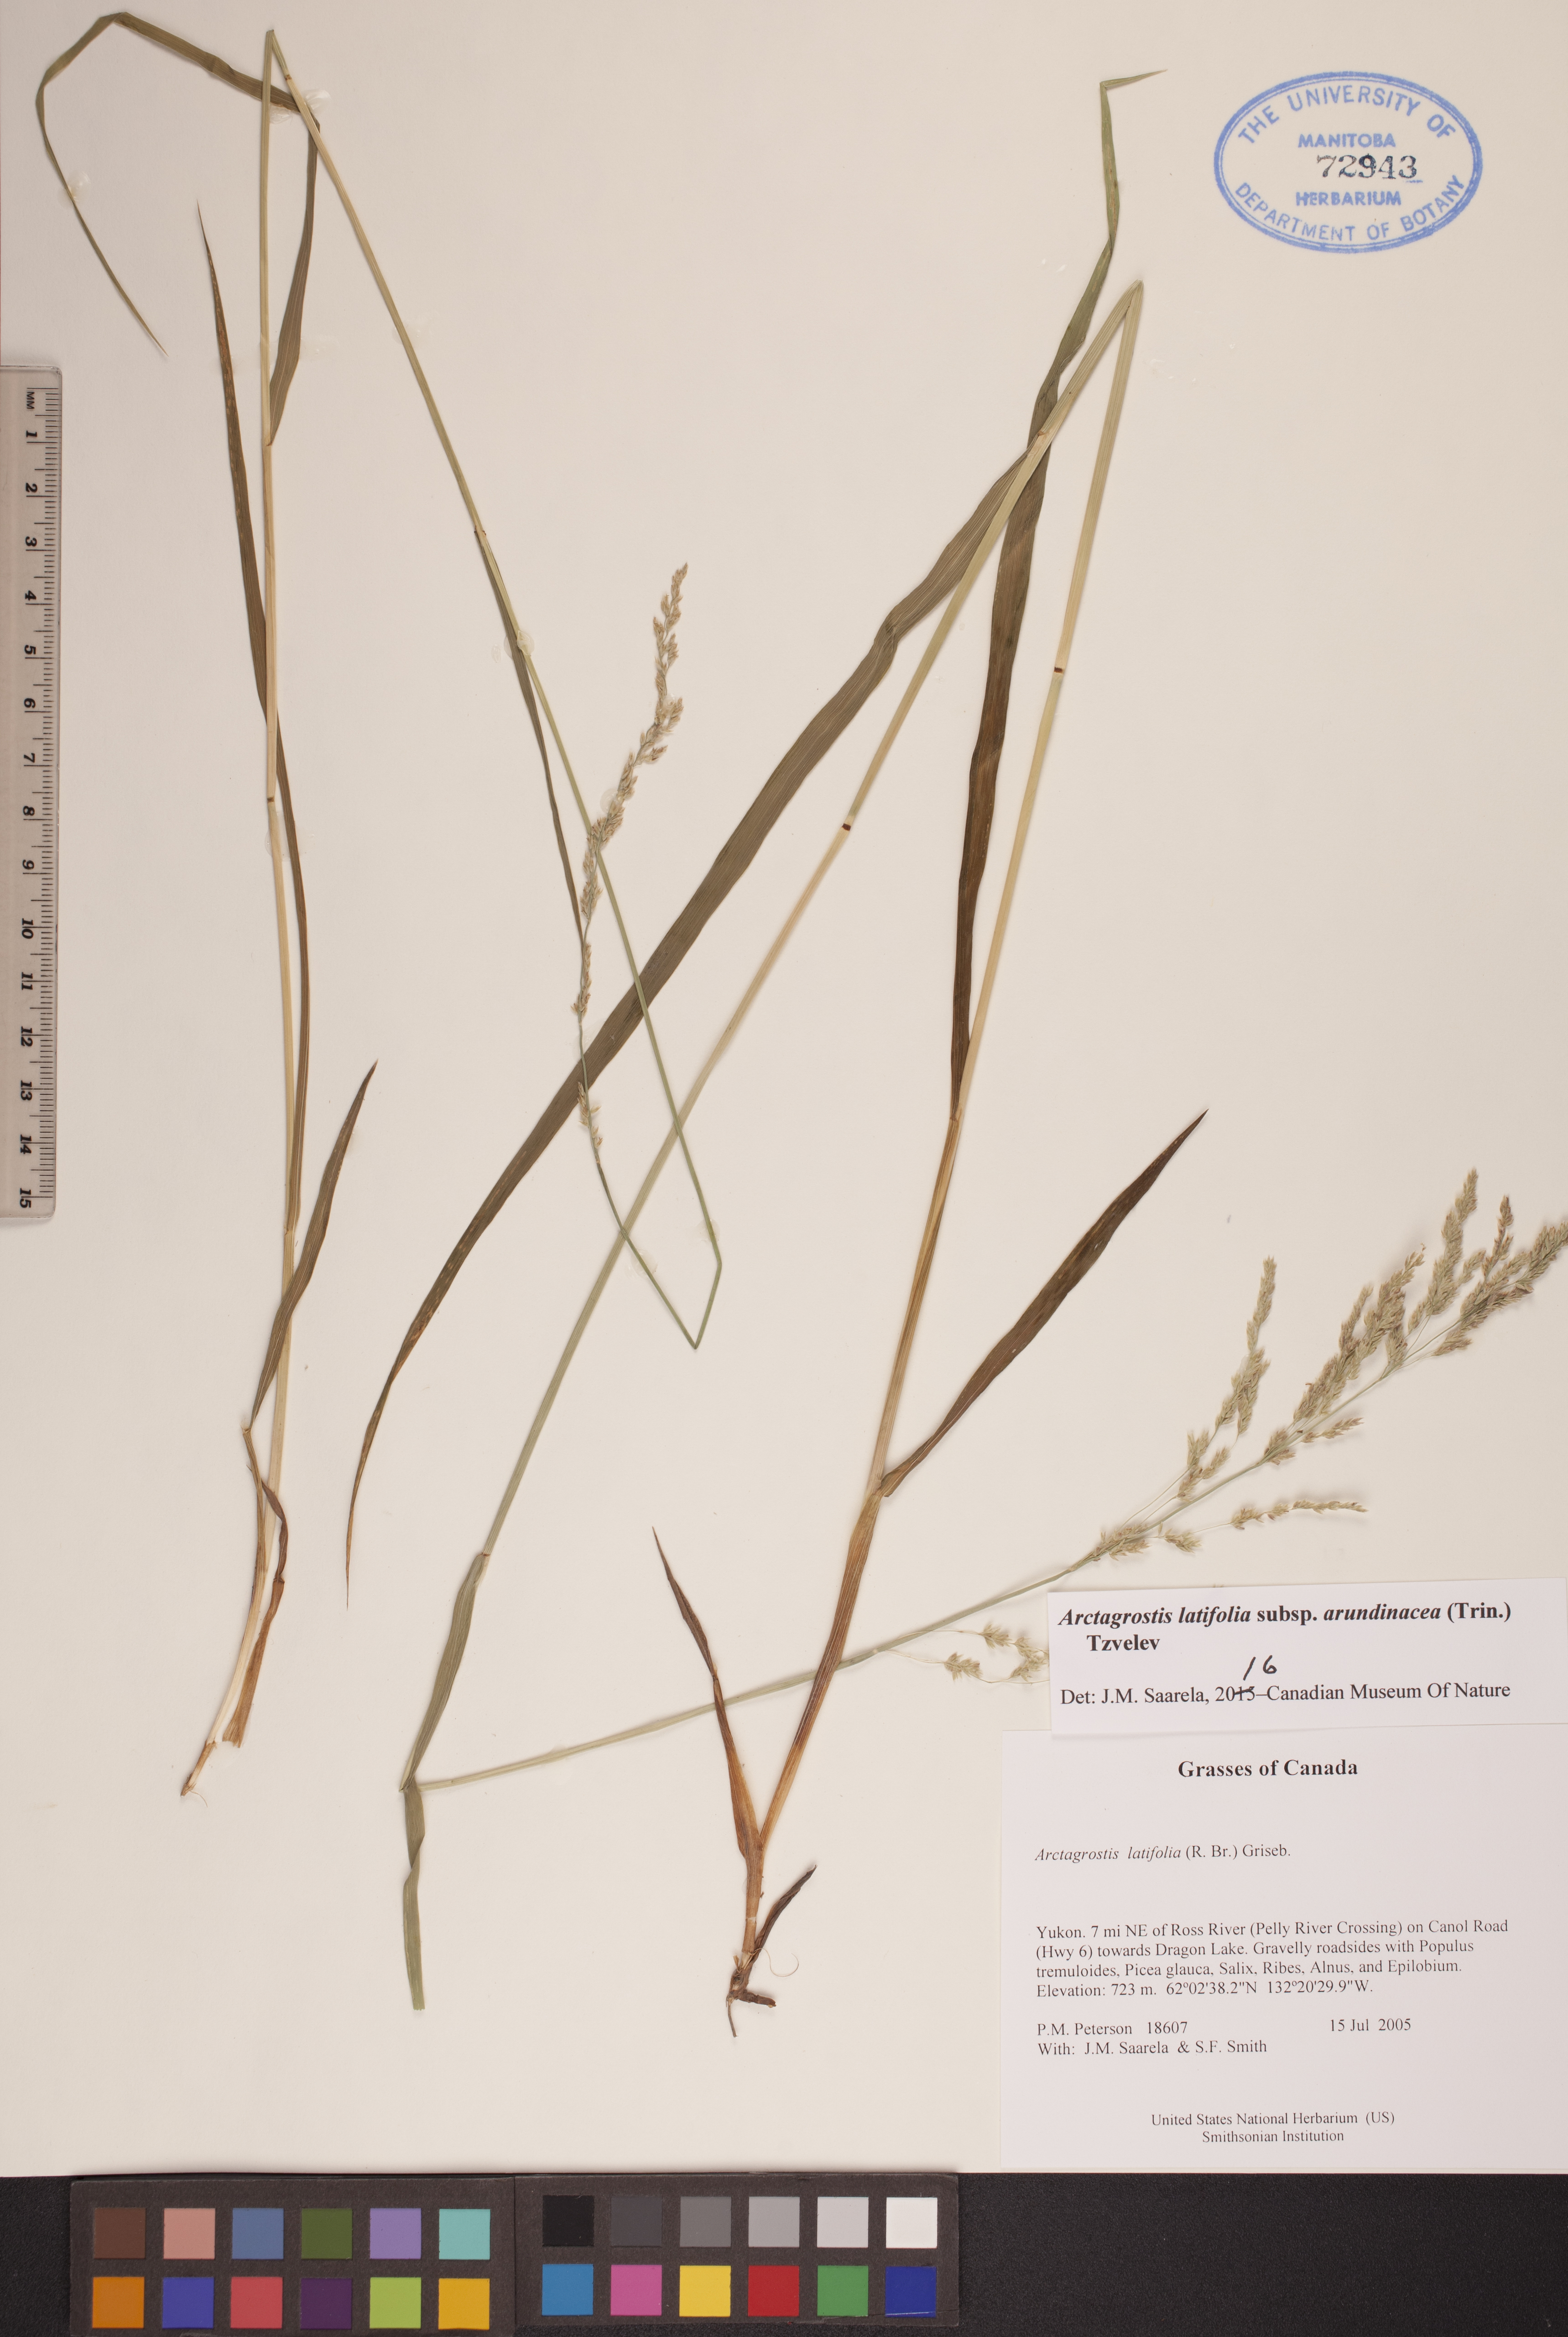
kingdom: Plantae
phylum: Tracheophyta
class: Liliopsida
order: Poales
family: Poaceae
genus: Arctagrostis
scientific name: Arctagrostis arundinacea
